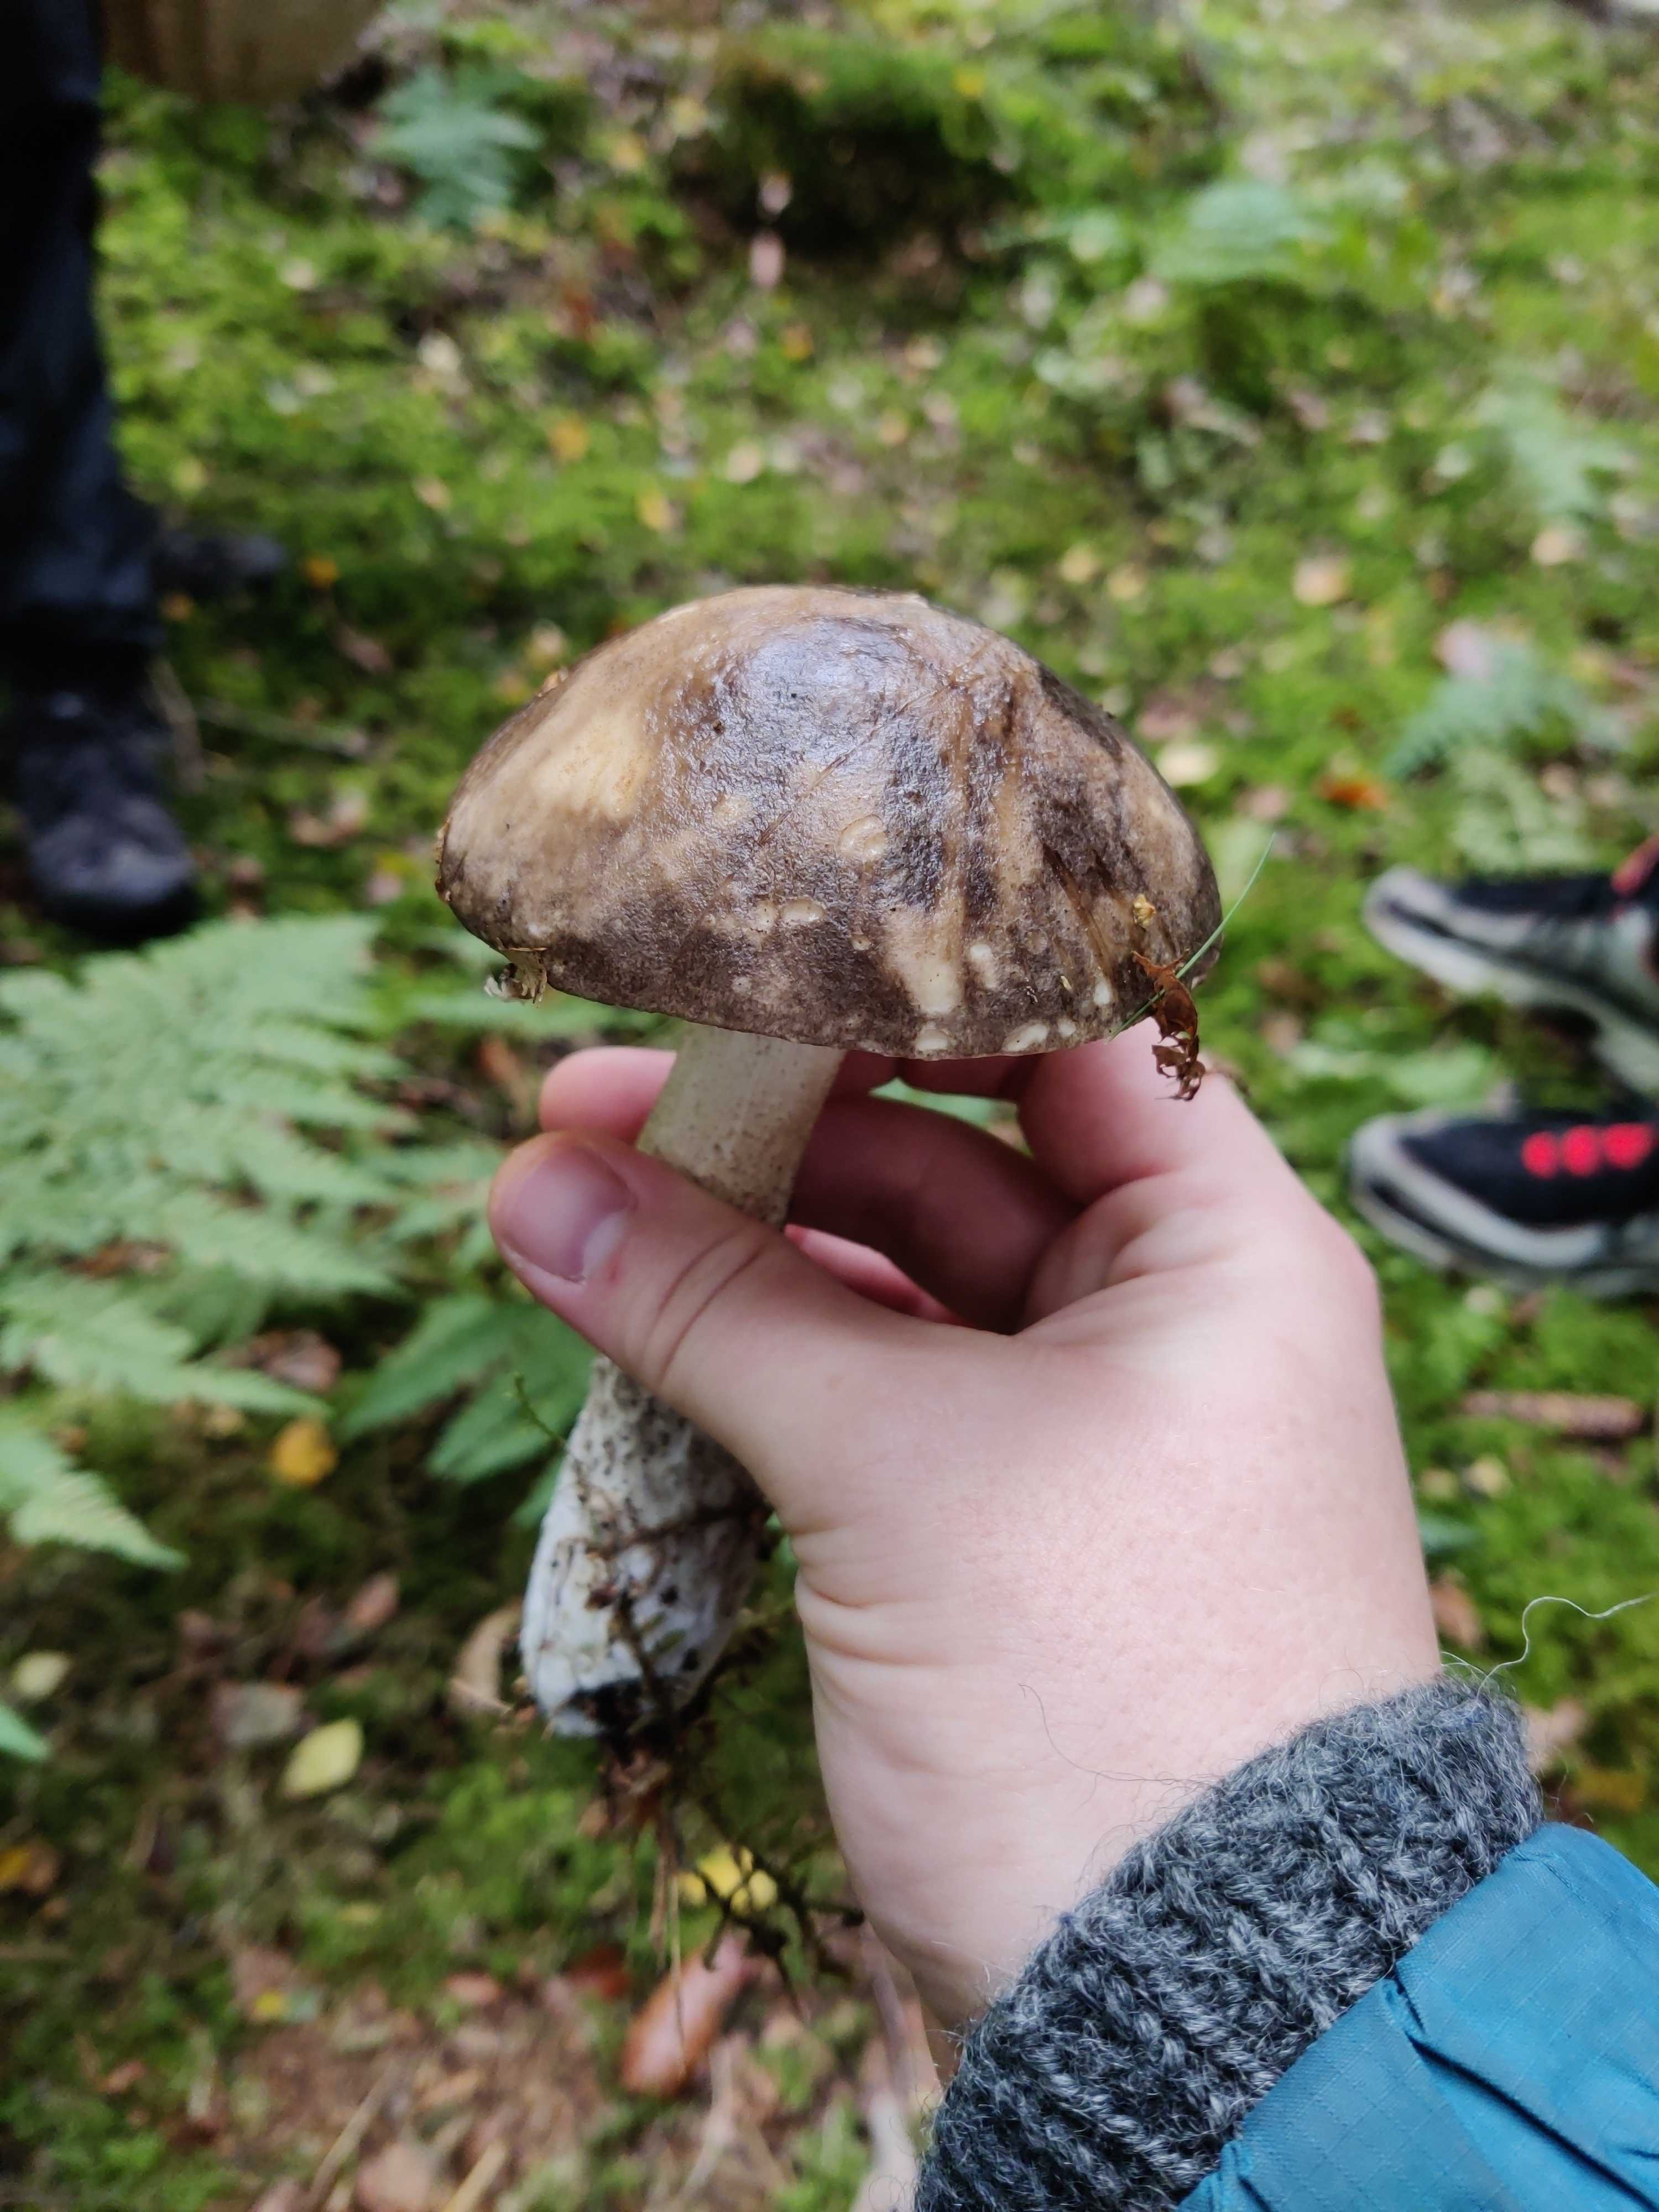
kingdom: Fungi
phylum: Basidiomycota
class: Agaricomycetes
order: Boletales
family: Boletaceae
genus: Leccinum
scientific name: Leccinum variicolor
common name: flammet skælrørhat
